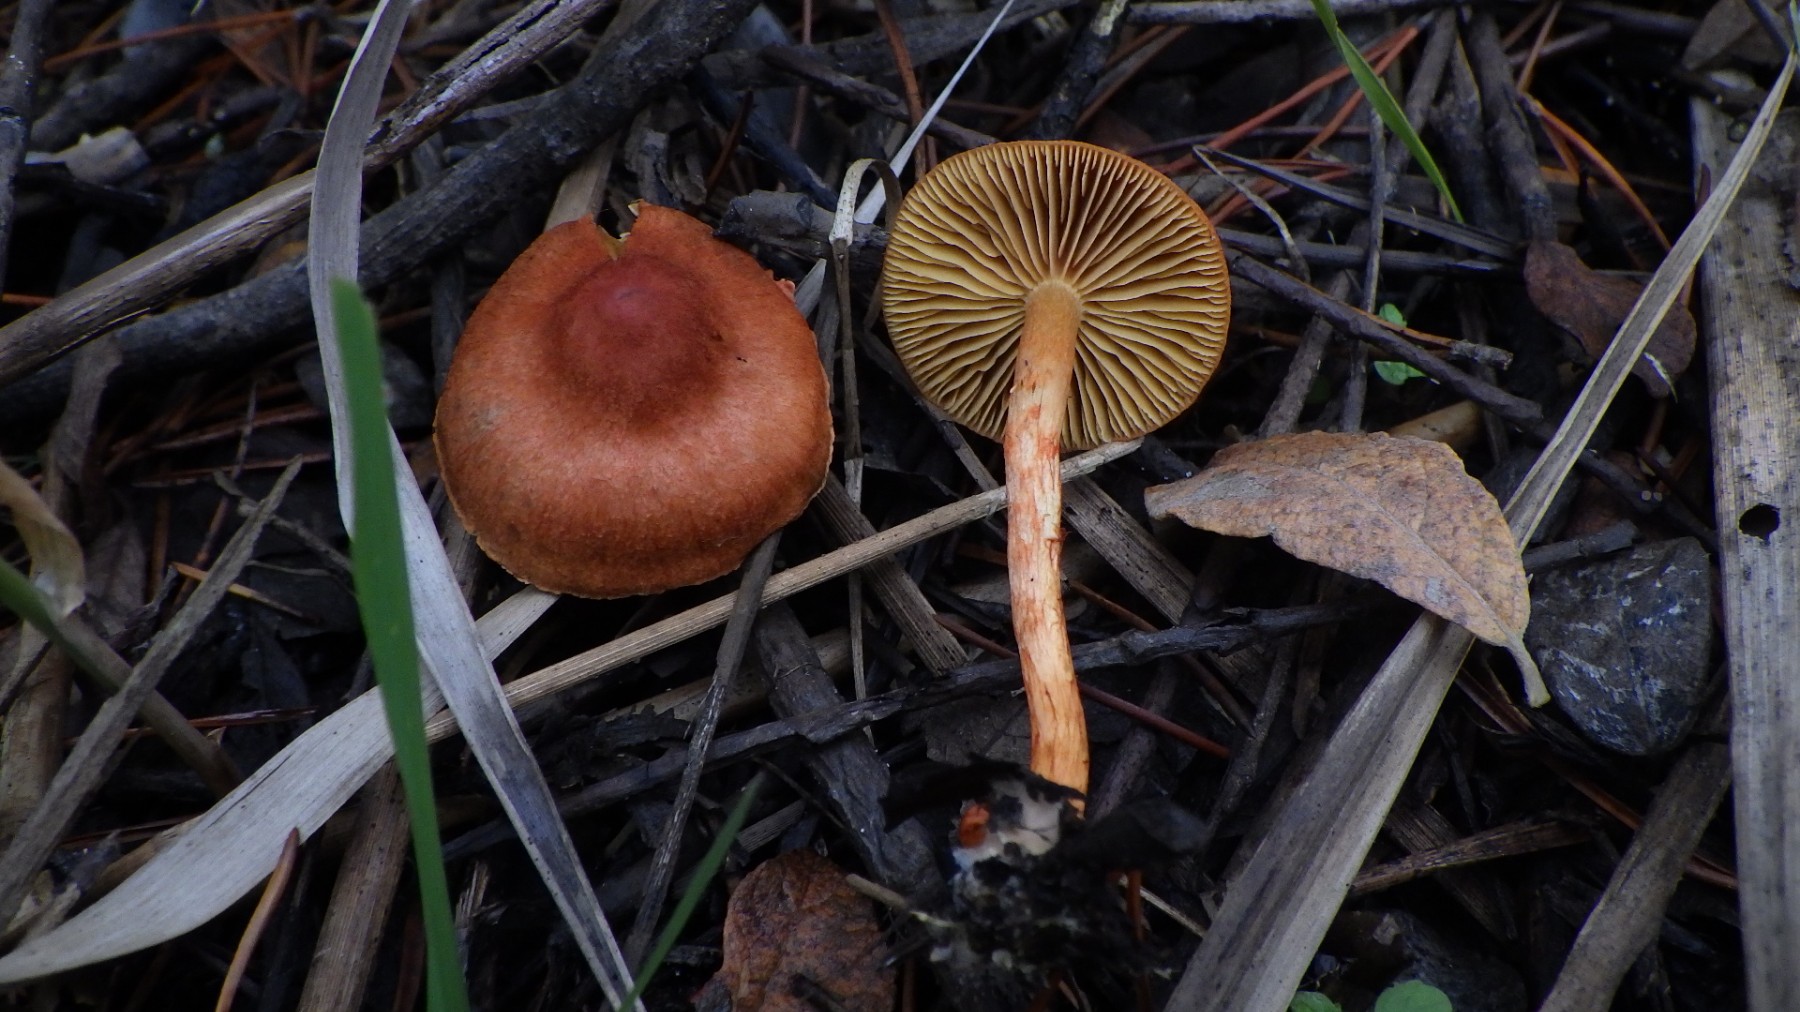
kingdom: Fungi
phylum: Basidiomycota
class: Agaricomycetes
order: Agaricales
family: Cortinariaceae
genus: Cortinarius
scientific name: Cortinarius uliginosus
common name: mose-slørhat
